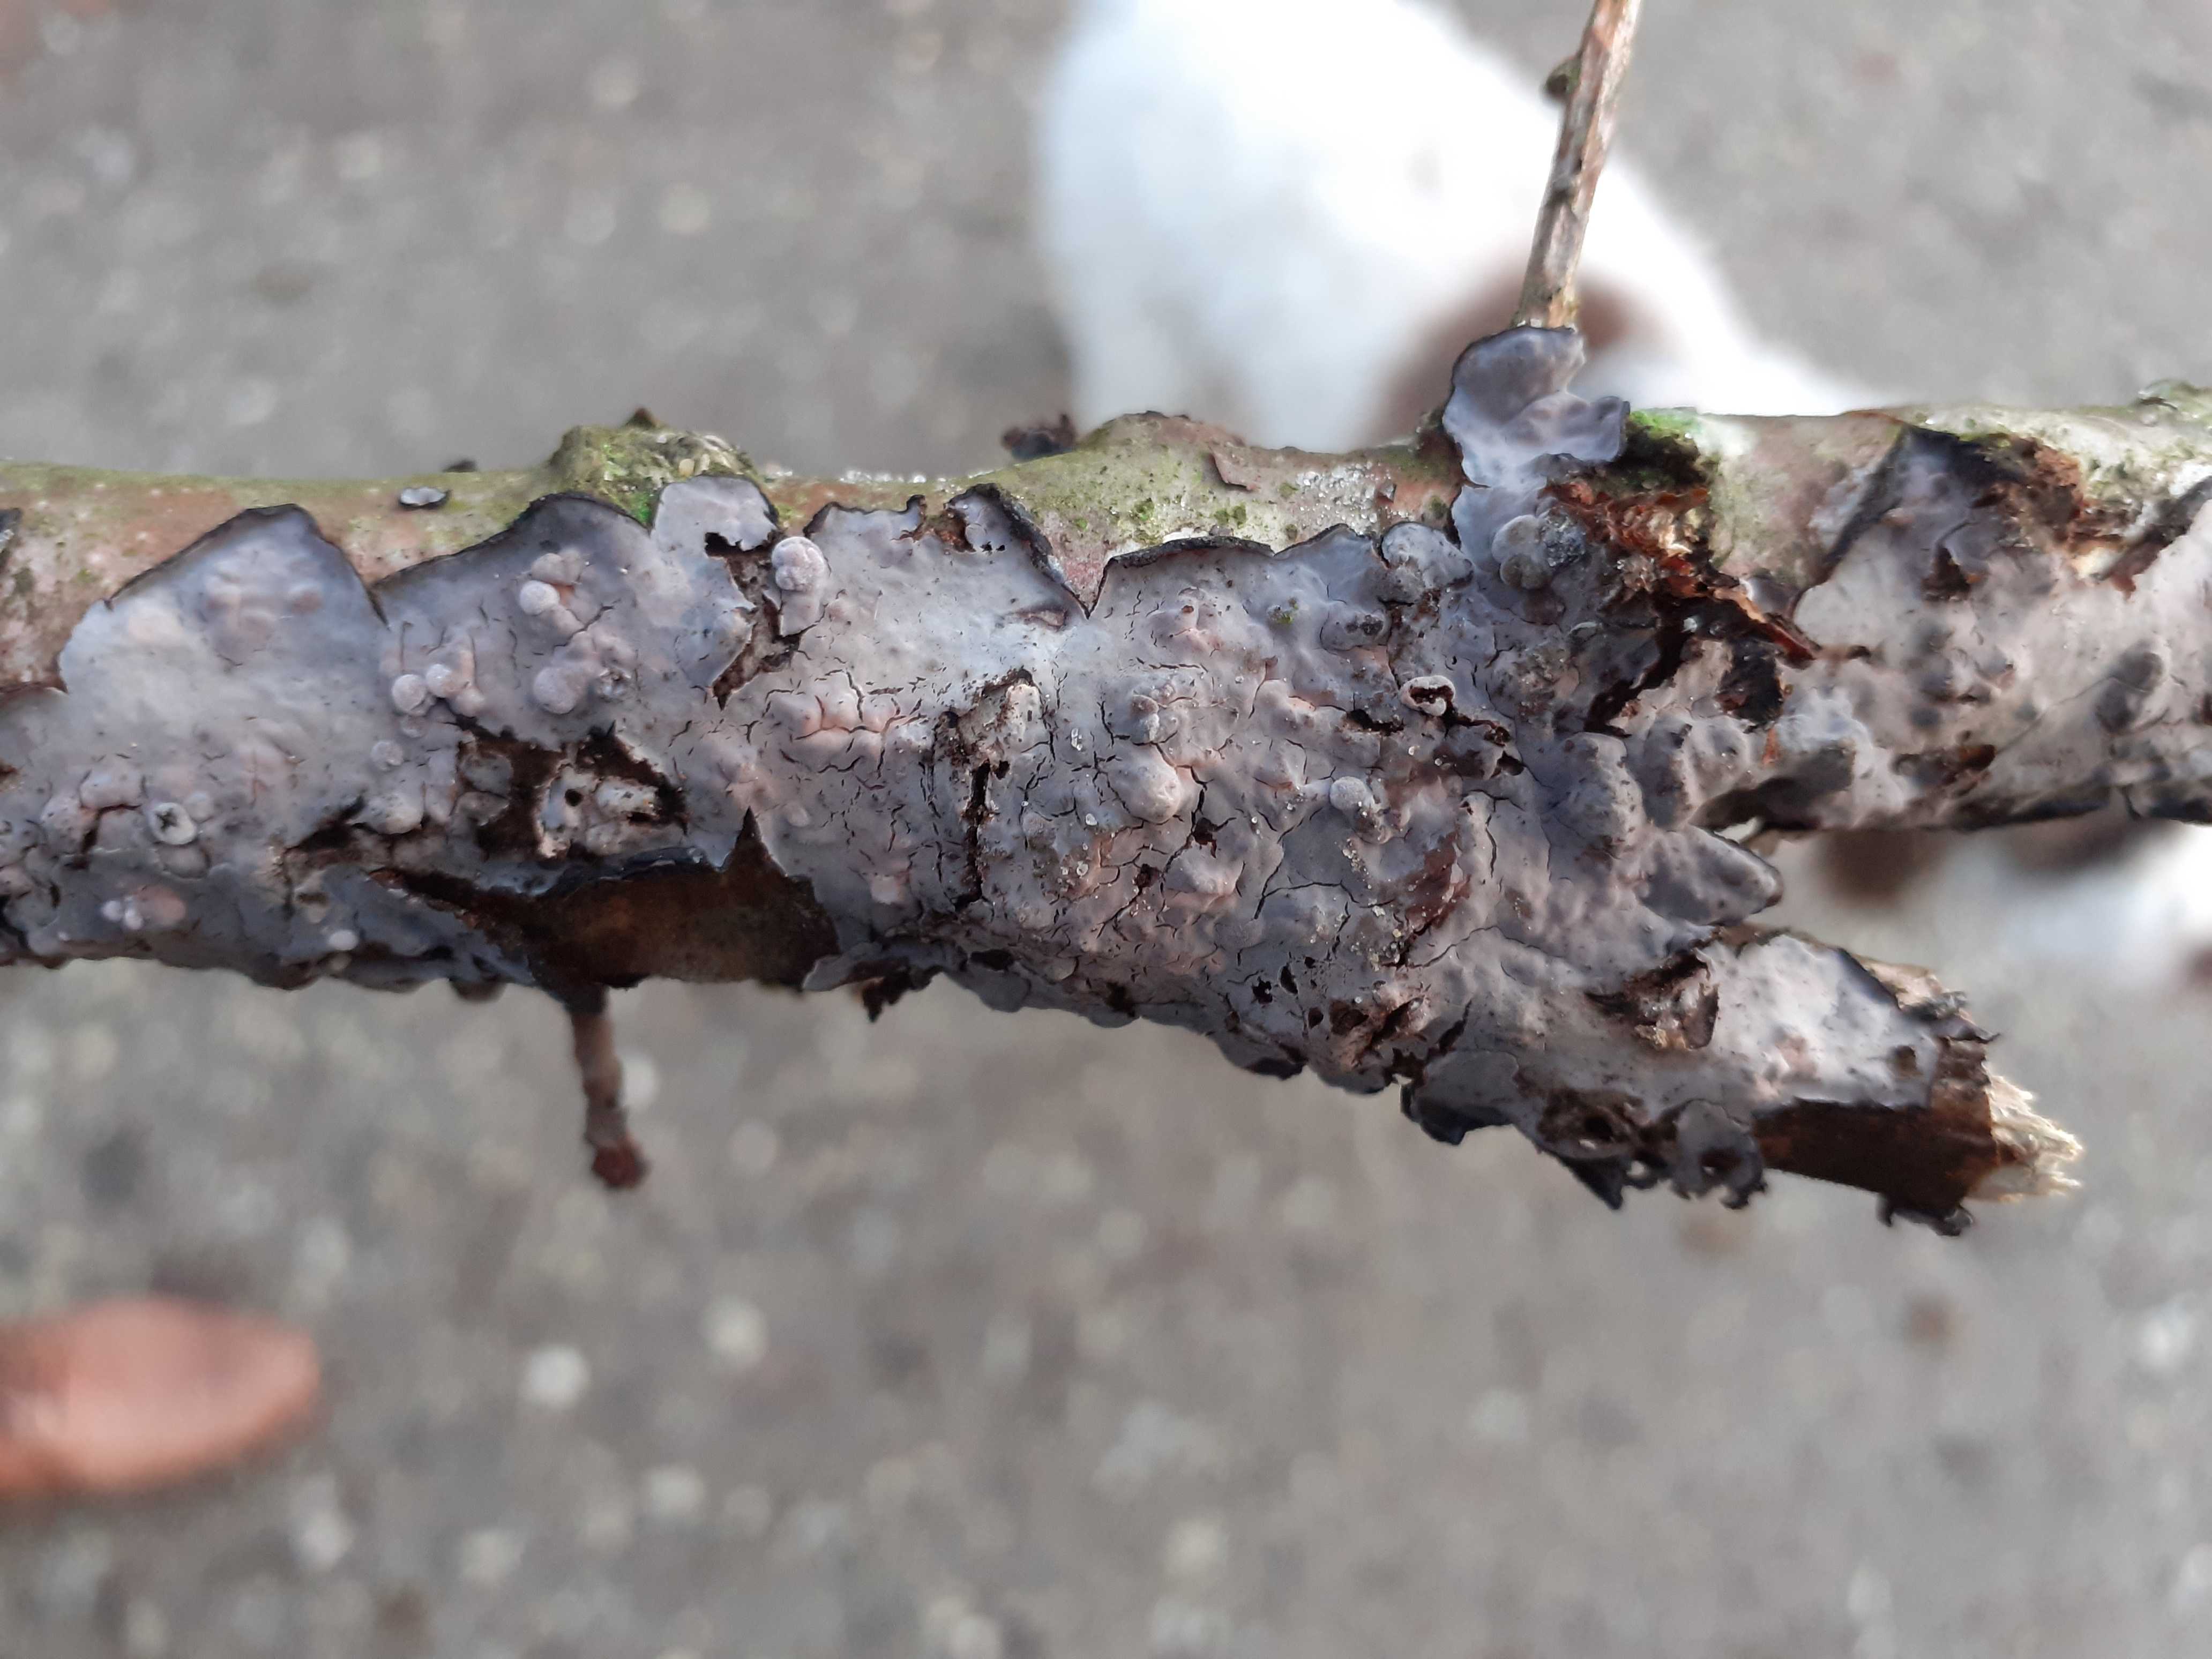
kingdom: Fungi
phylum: Basidiomycota
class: Agaricomycetes
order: Russulales
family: Peniophoraceae
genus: Peniophora
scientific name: Peniophora quercina
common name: ege-voksskind
